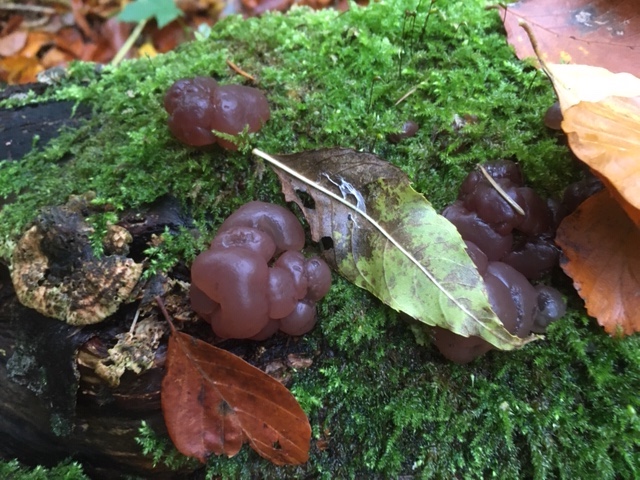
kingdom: Fungi
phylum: Ascomycota
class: Leotiomycetes
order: Helotiales
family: Gelatinodiscaceae
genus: Ascotremella
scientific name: Ascotremella faginea
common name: hjerne-bævreskive
